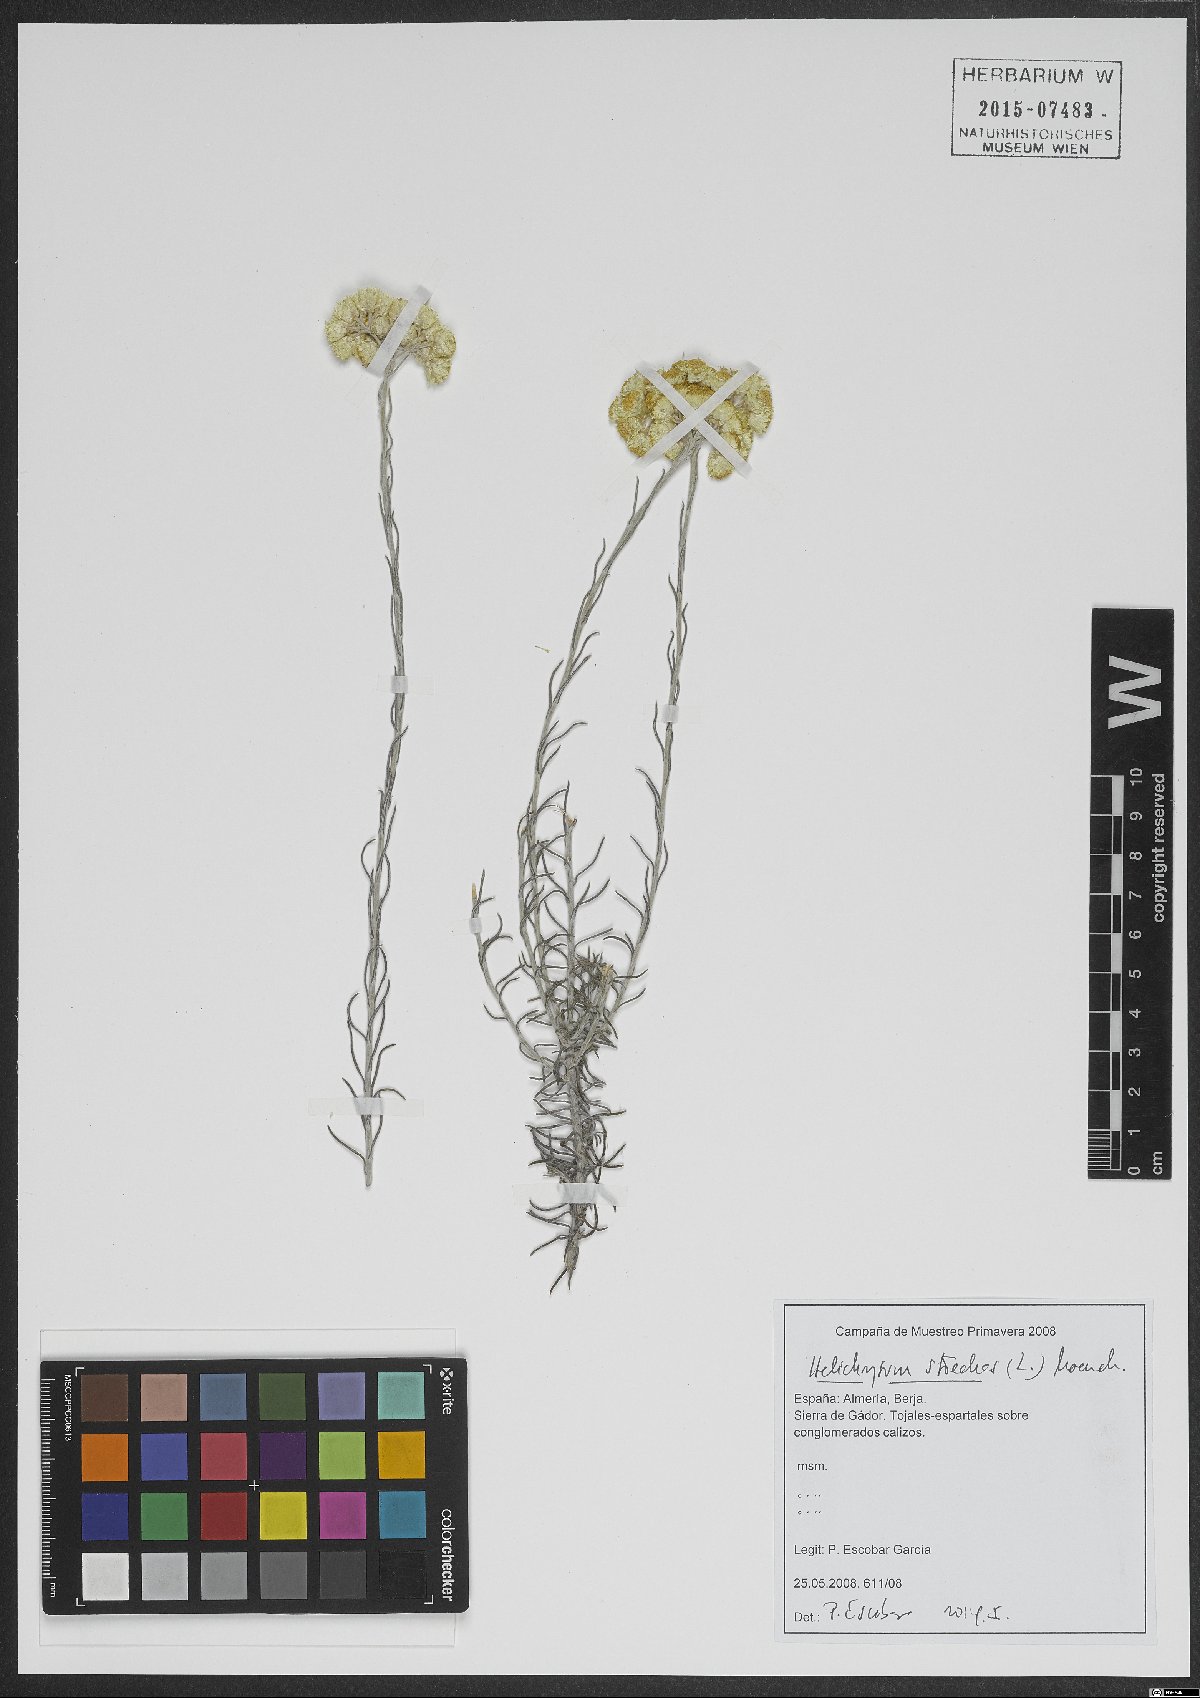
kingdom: Plantae
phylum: Tracheophyta
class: Magnoliopsida
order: Asterales
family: Asteraceae
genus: Helichrysum
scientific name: Helichrysum stoechas
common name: Goldilocks
